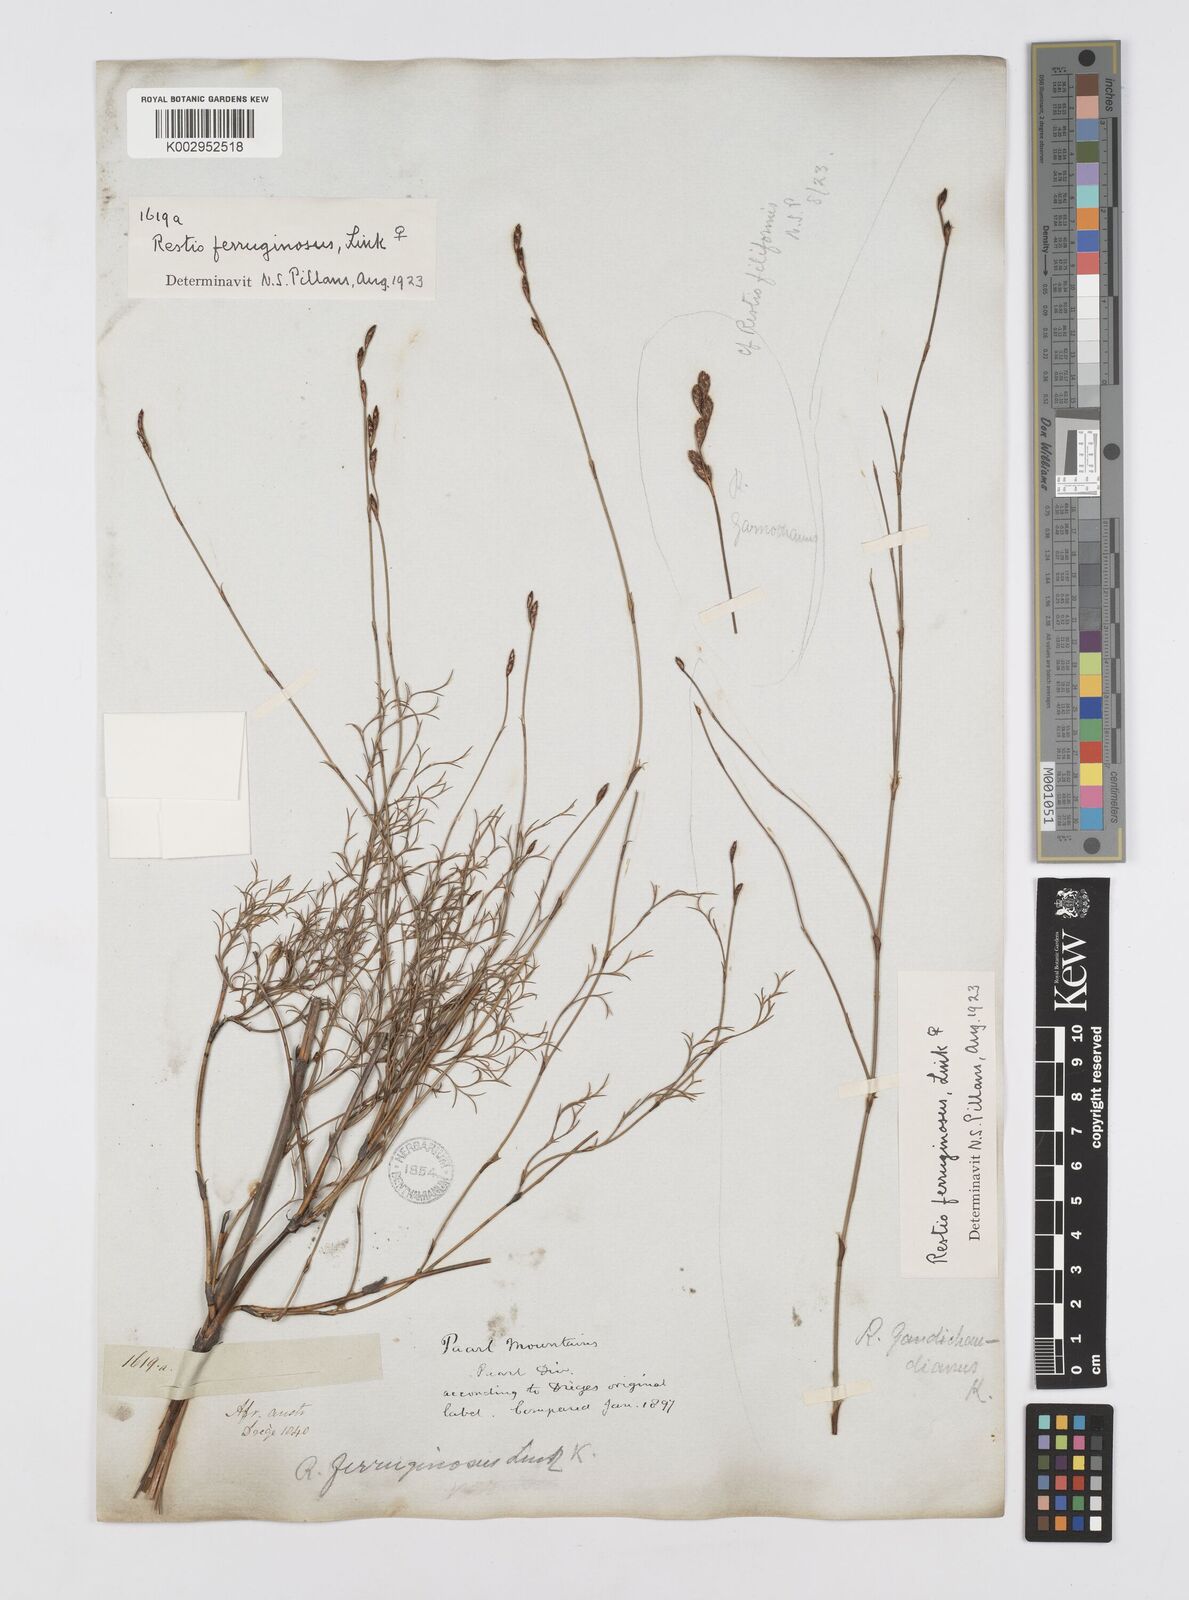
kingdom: Plantae
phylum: Tracheophyta
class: Liliopsida
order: Poales
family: Restionaceae
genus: Restio
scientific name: Restio gaudichaudianus
